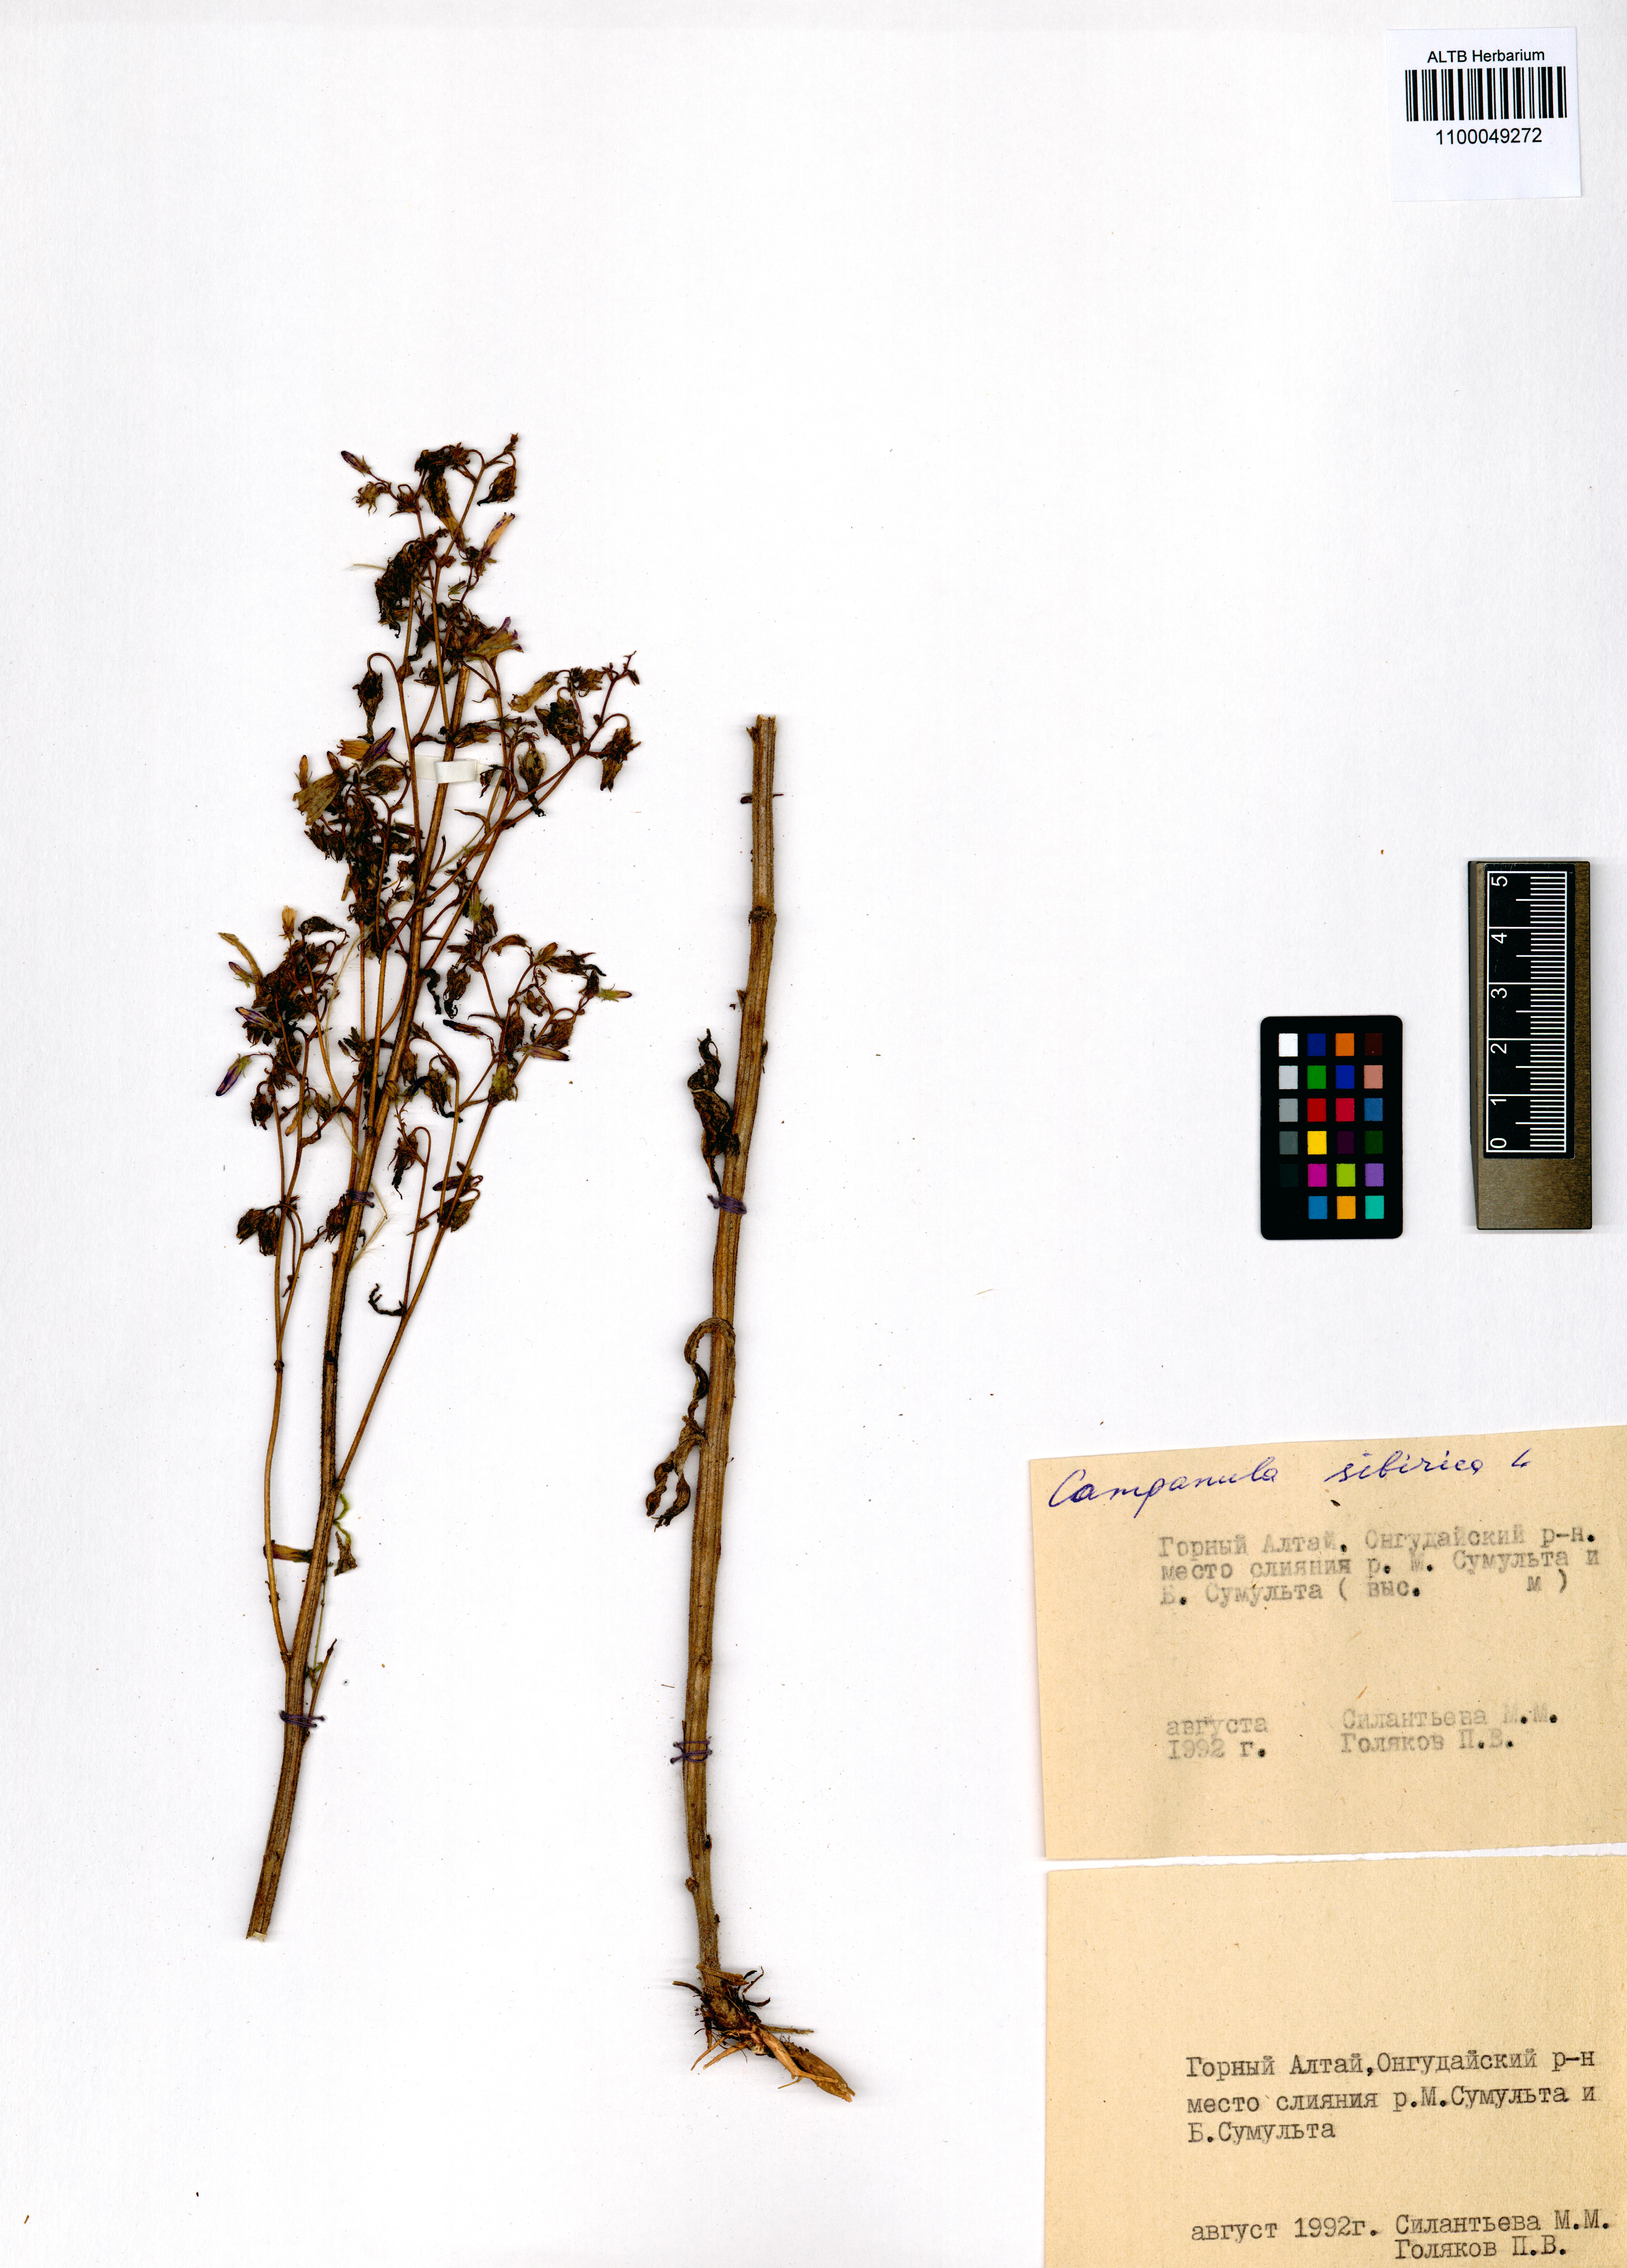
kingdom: Plantae
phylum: Tracheophyta
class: Magnoliopsida
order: Asterales
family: Campanulaceae
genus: Campanula
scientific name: Campanula sibirica
